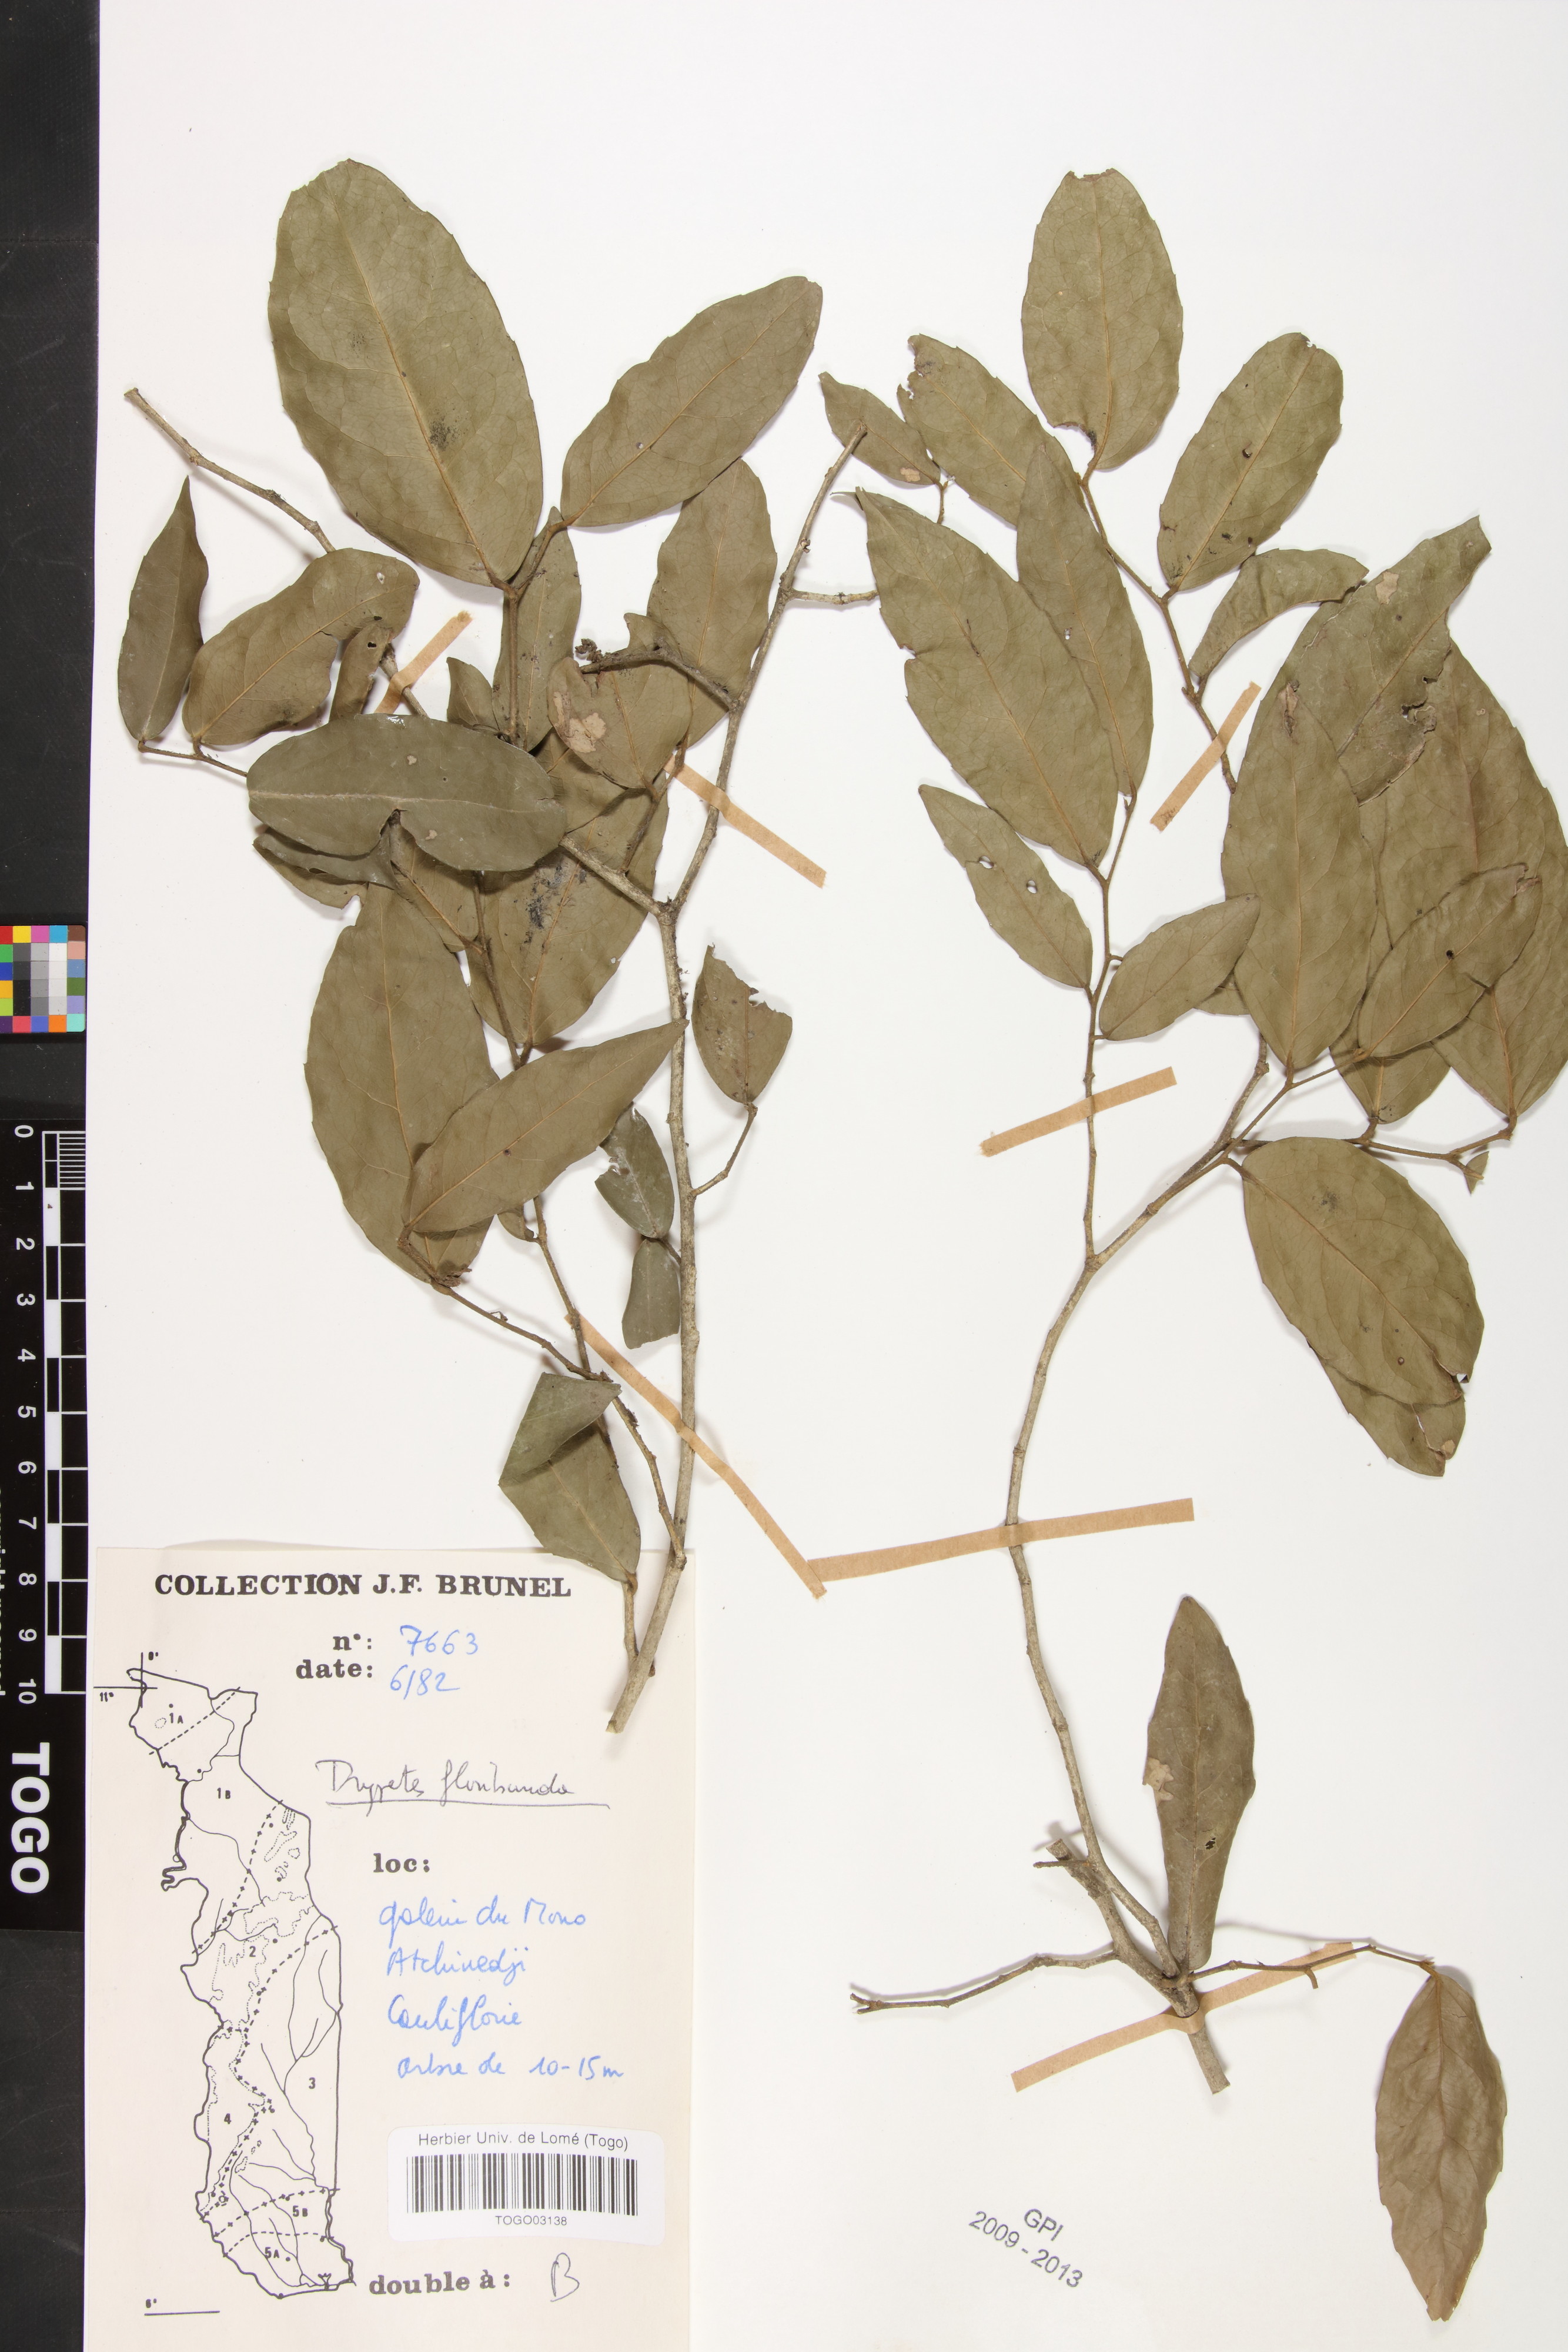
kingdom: Plantae
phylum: Tracheophyta
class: Magnoliopsida
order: Malpighiales
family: Putranjivaceae
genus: Drypetes
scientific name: Drypetes floribunda
